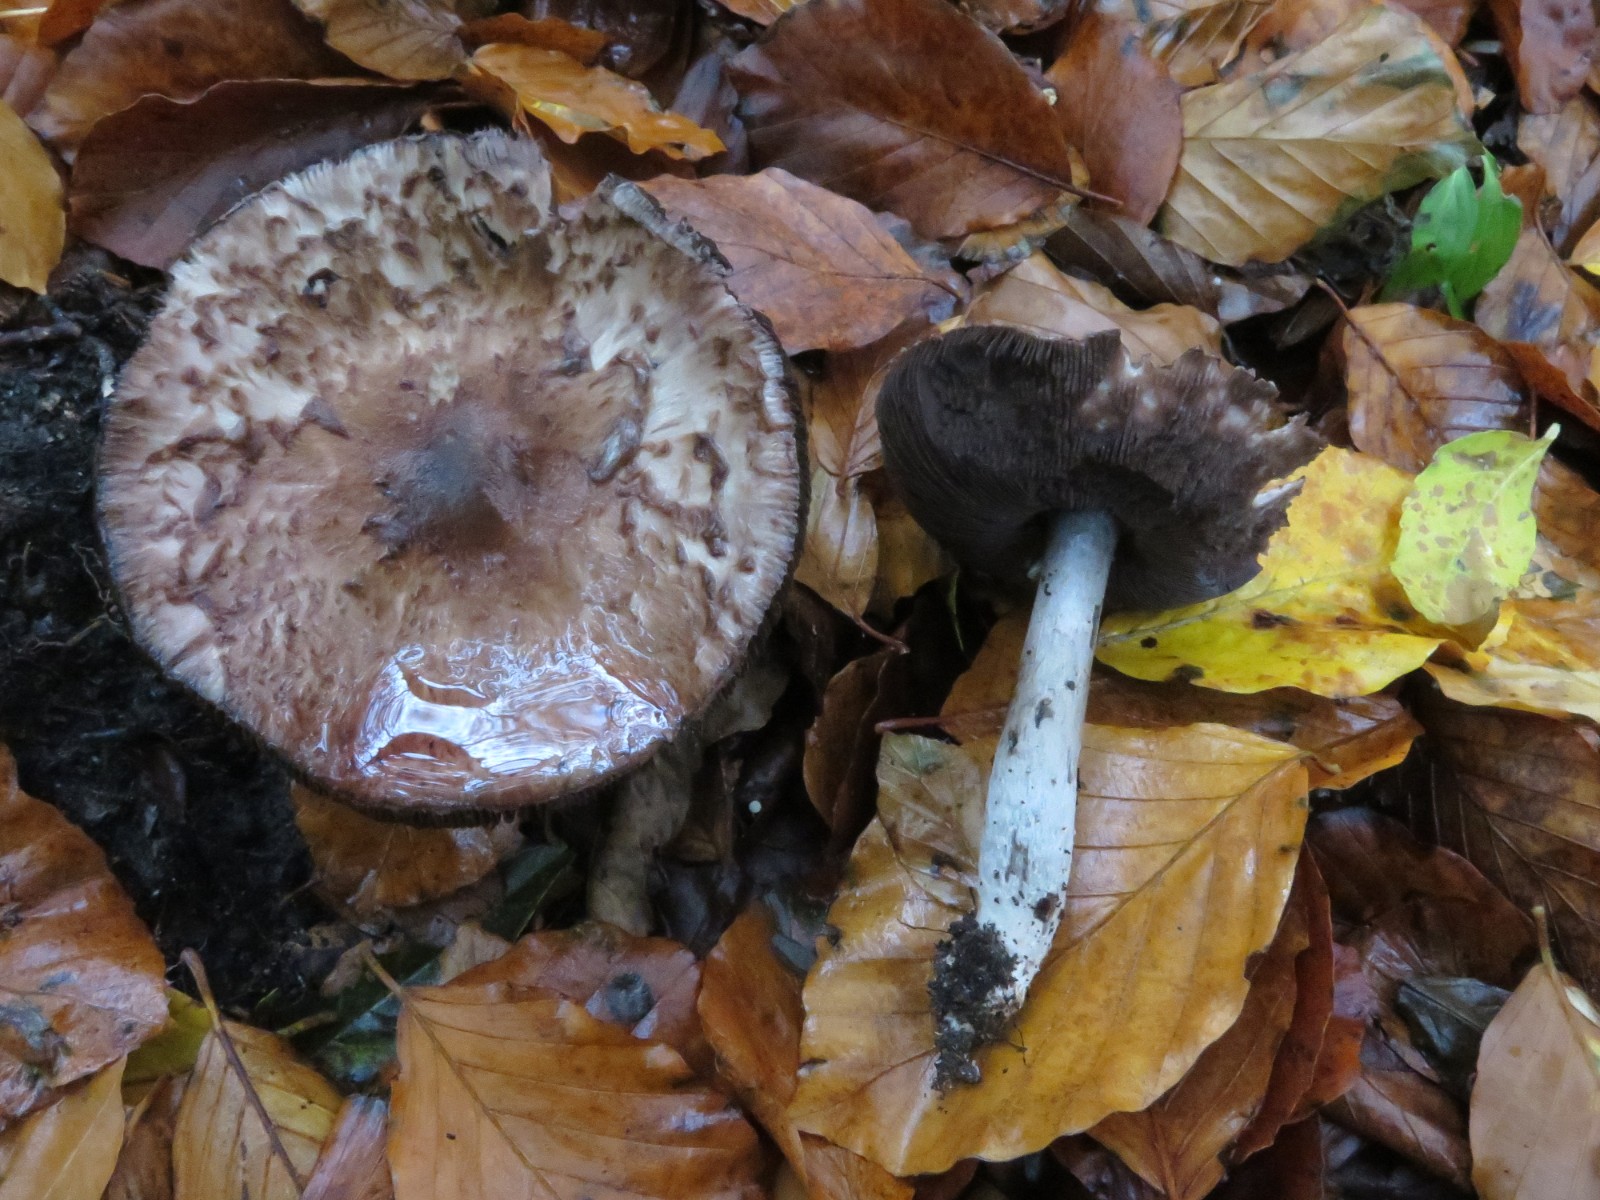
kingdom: Fungi
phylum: Basidiomycota
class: Agaricomycetes
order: Agaricales
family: Agaricaceae
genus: Agaricus
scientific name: Agaricus
